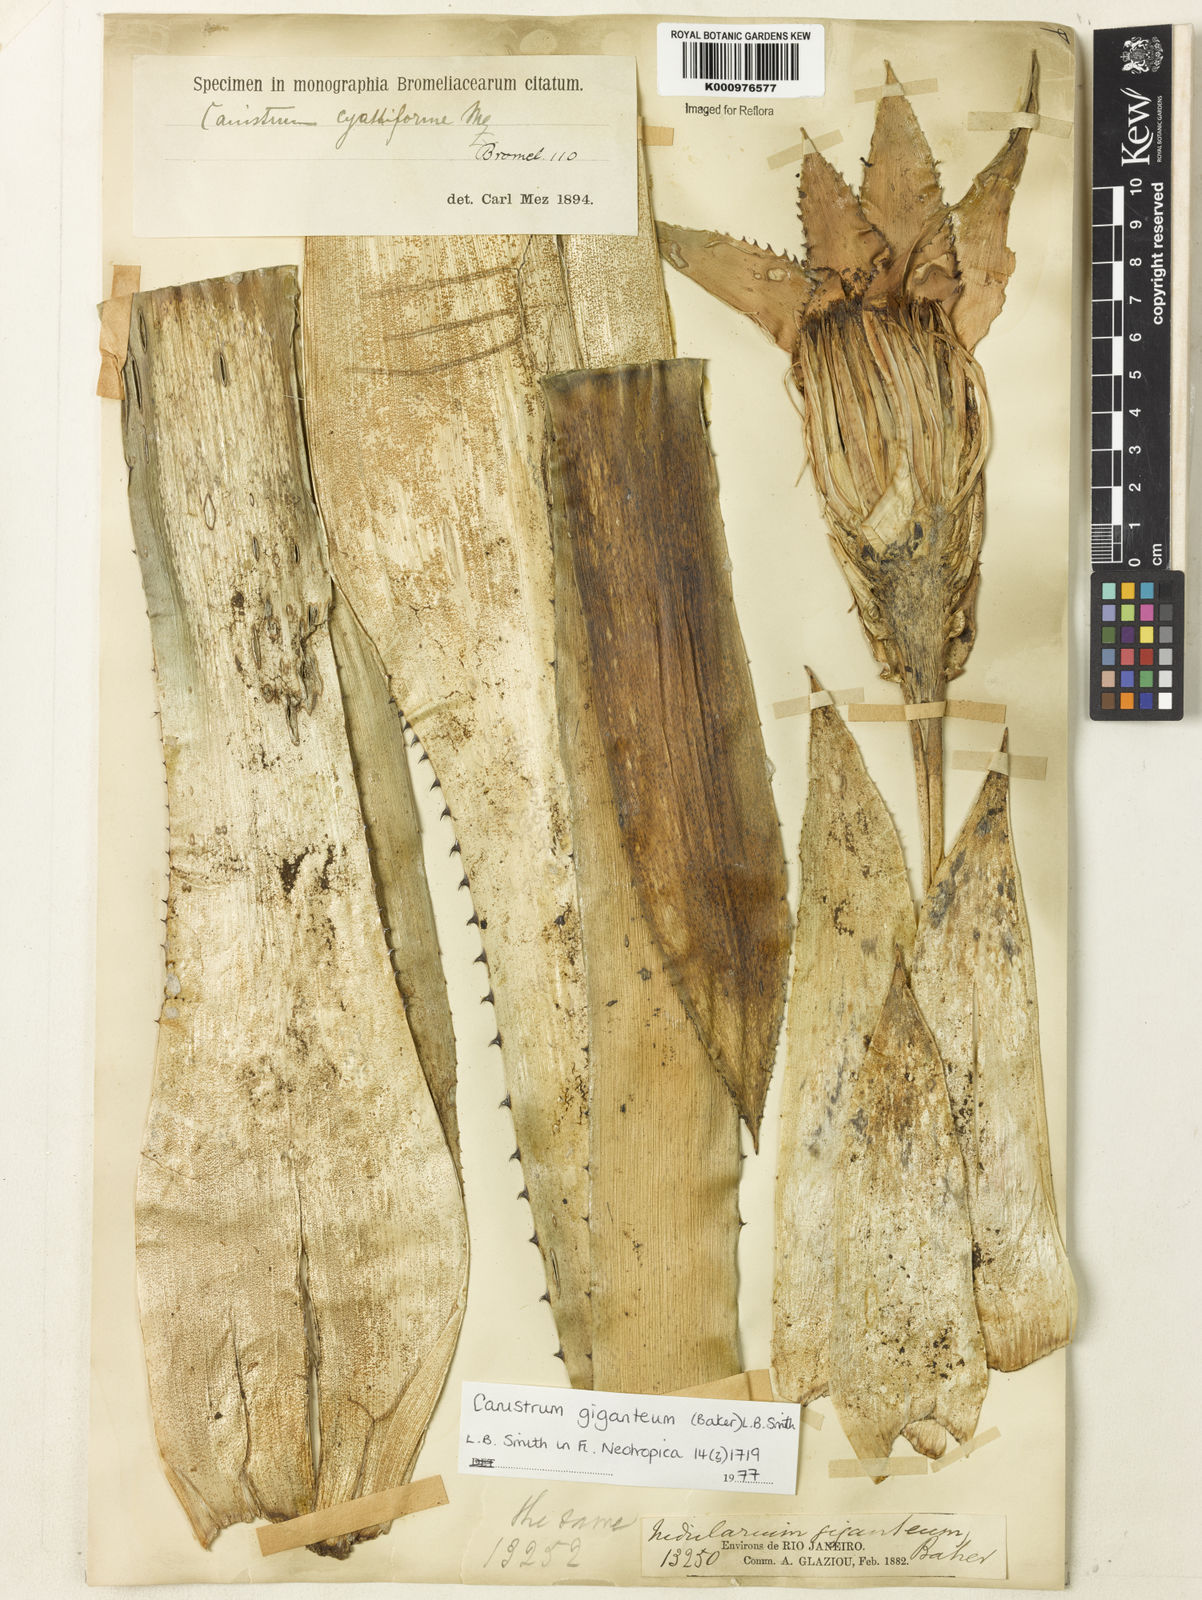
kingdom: Plantae
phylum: Tracheophyta
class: Liliopsida
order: Poales
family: Bromeliaceae
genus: Wittrockia
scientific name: Wittrockia gigantea
